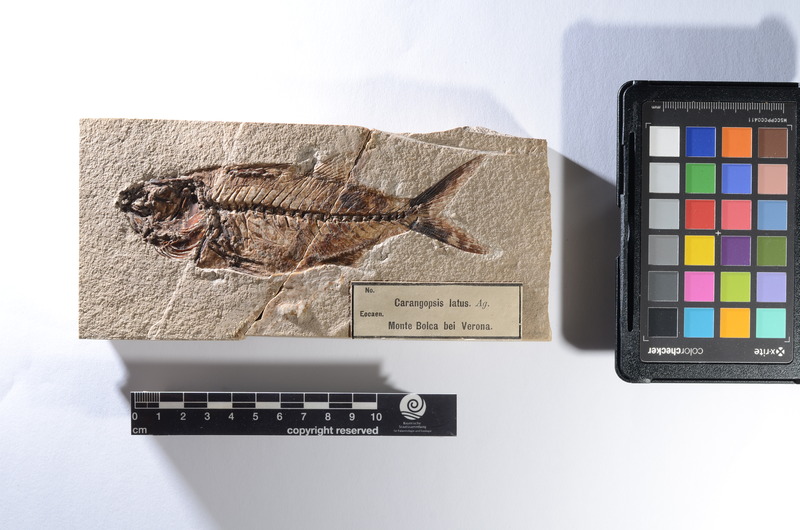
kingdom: Animalia
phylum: Chordata
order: Perciformes
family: Pomatomidae
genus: Carangopsis
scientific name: Carangopsis brevis
